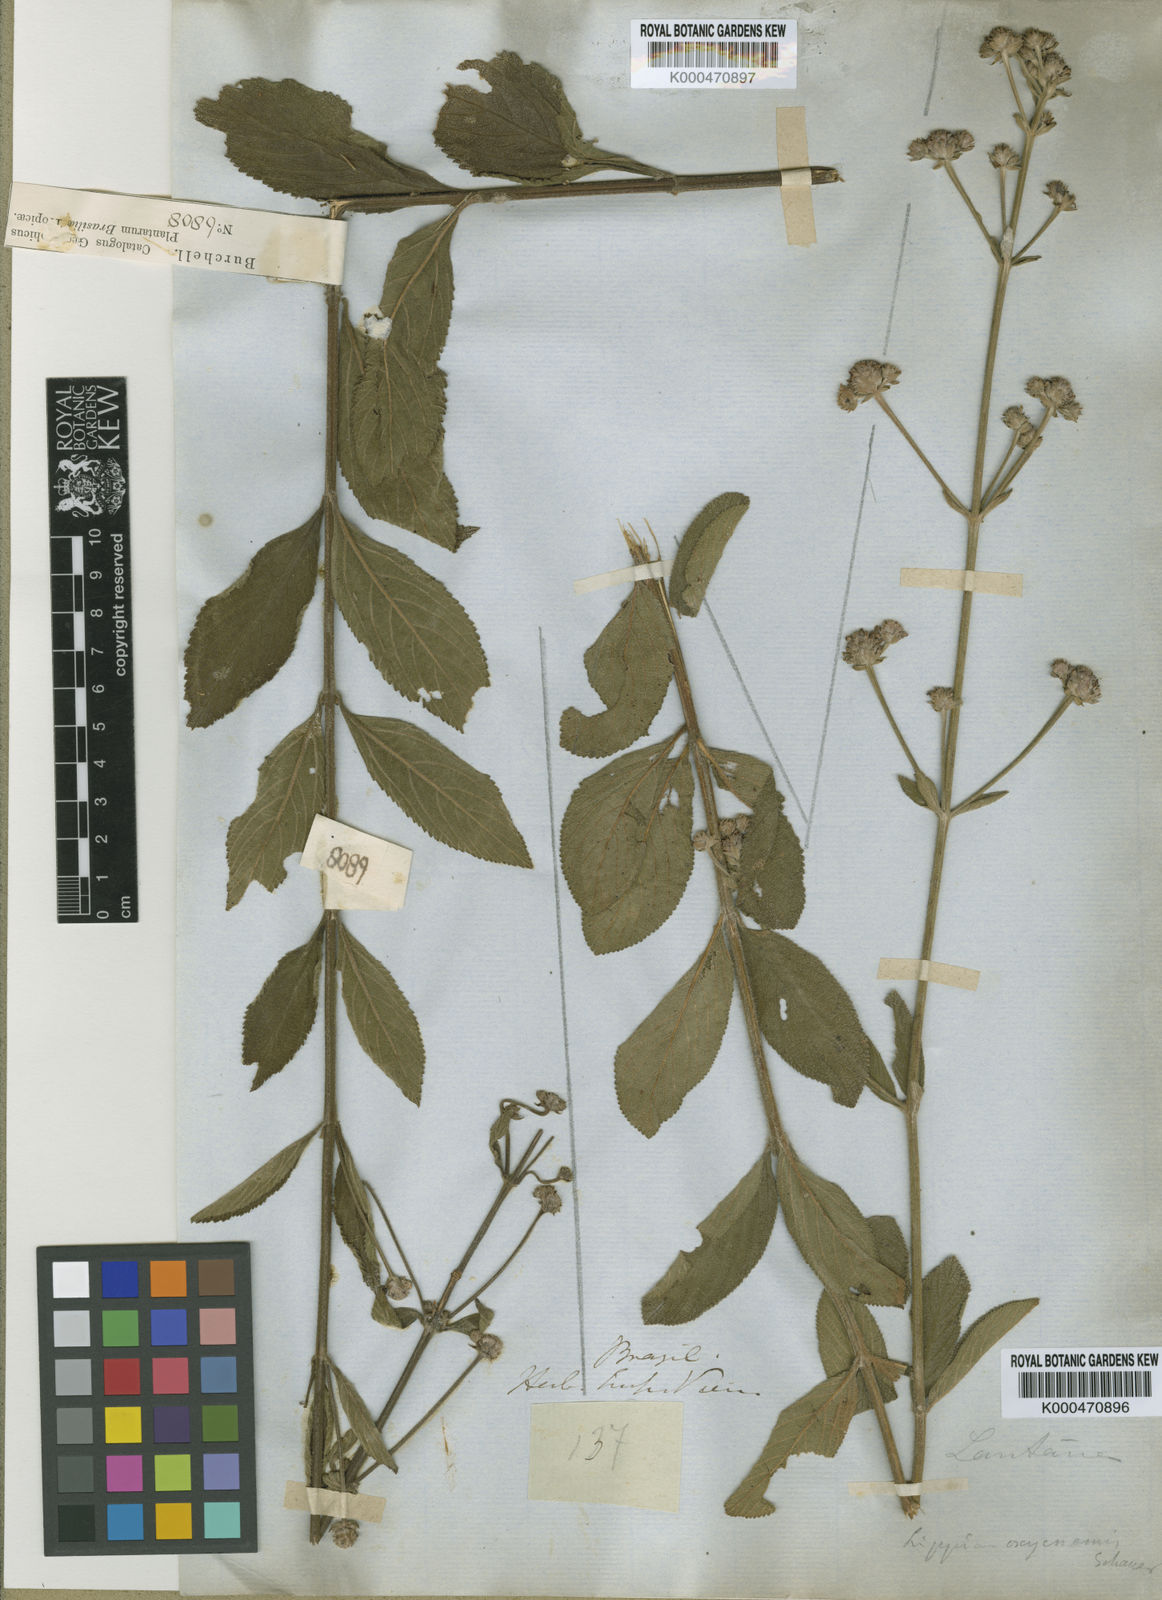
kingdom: Plantae
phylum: Tracheophyta
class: Magnoliopsida
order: Lamiales
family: Verbenaceae
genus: Lippia
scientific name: Lippia oxycnemis
